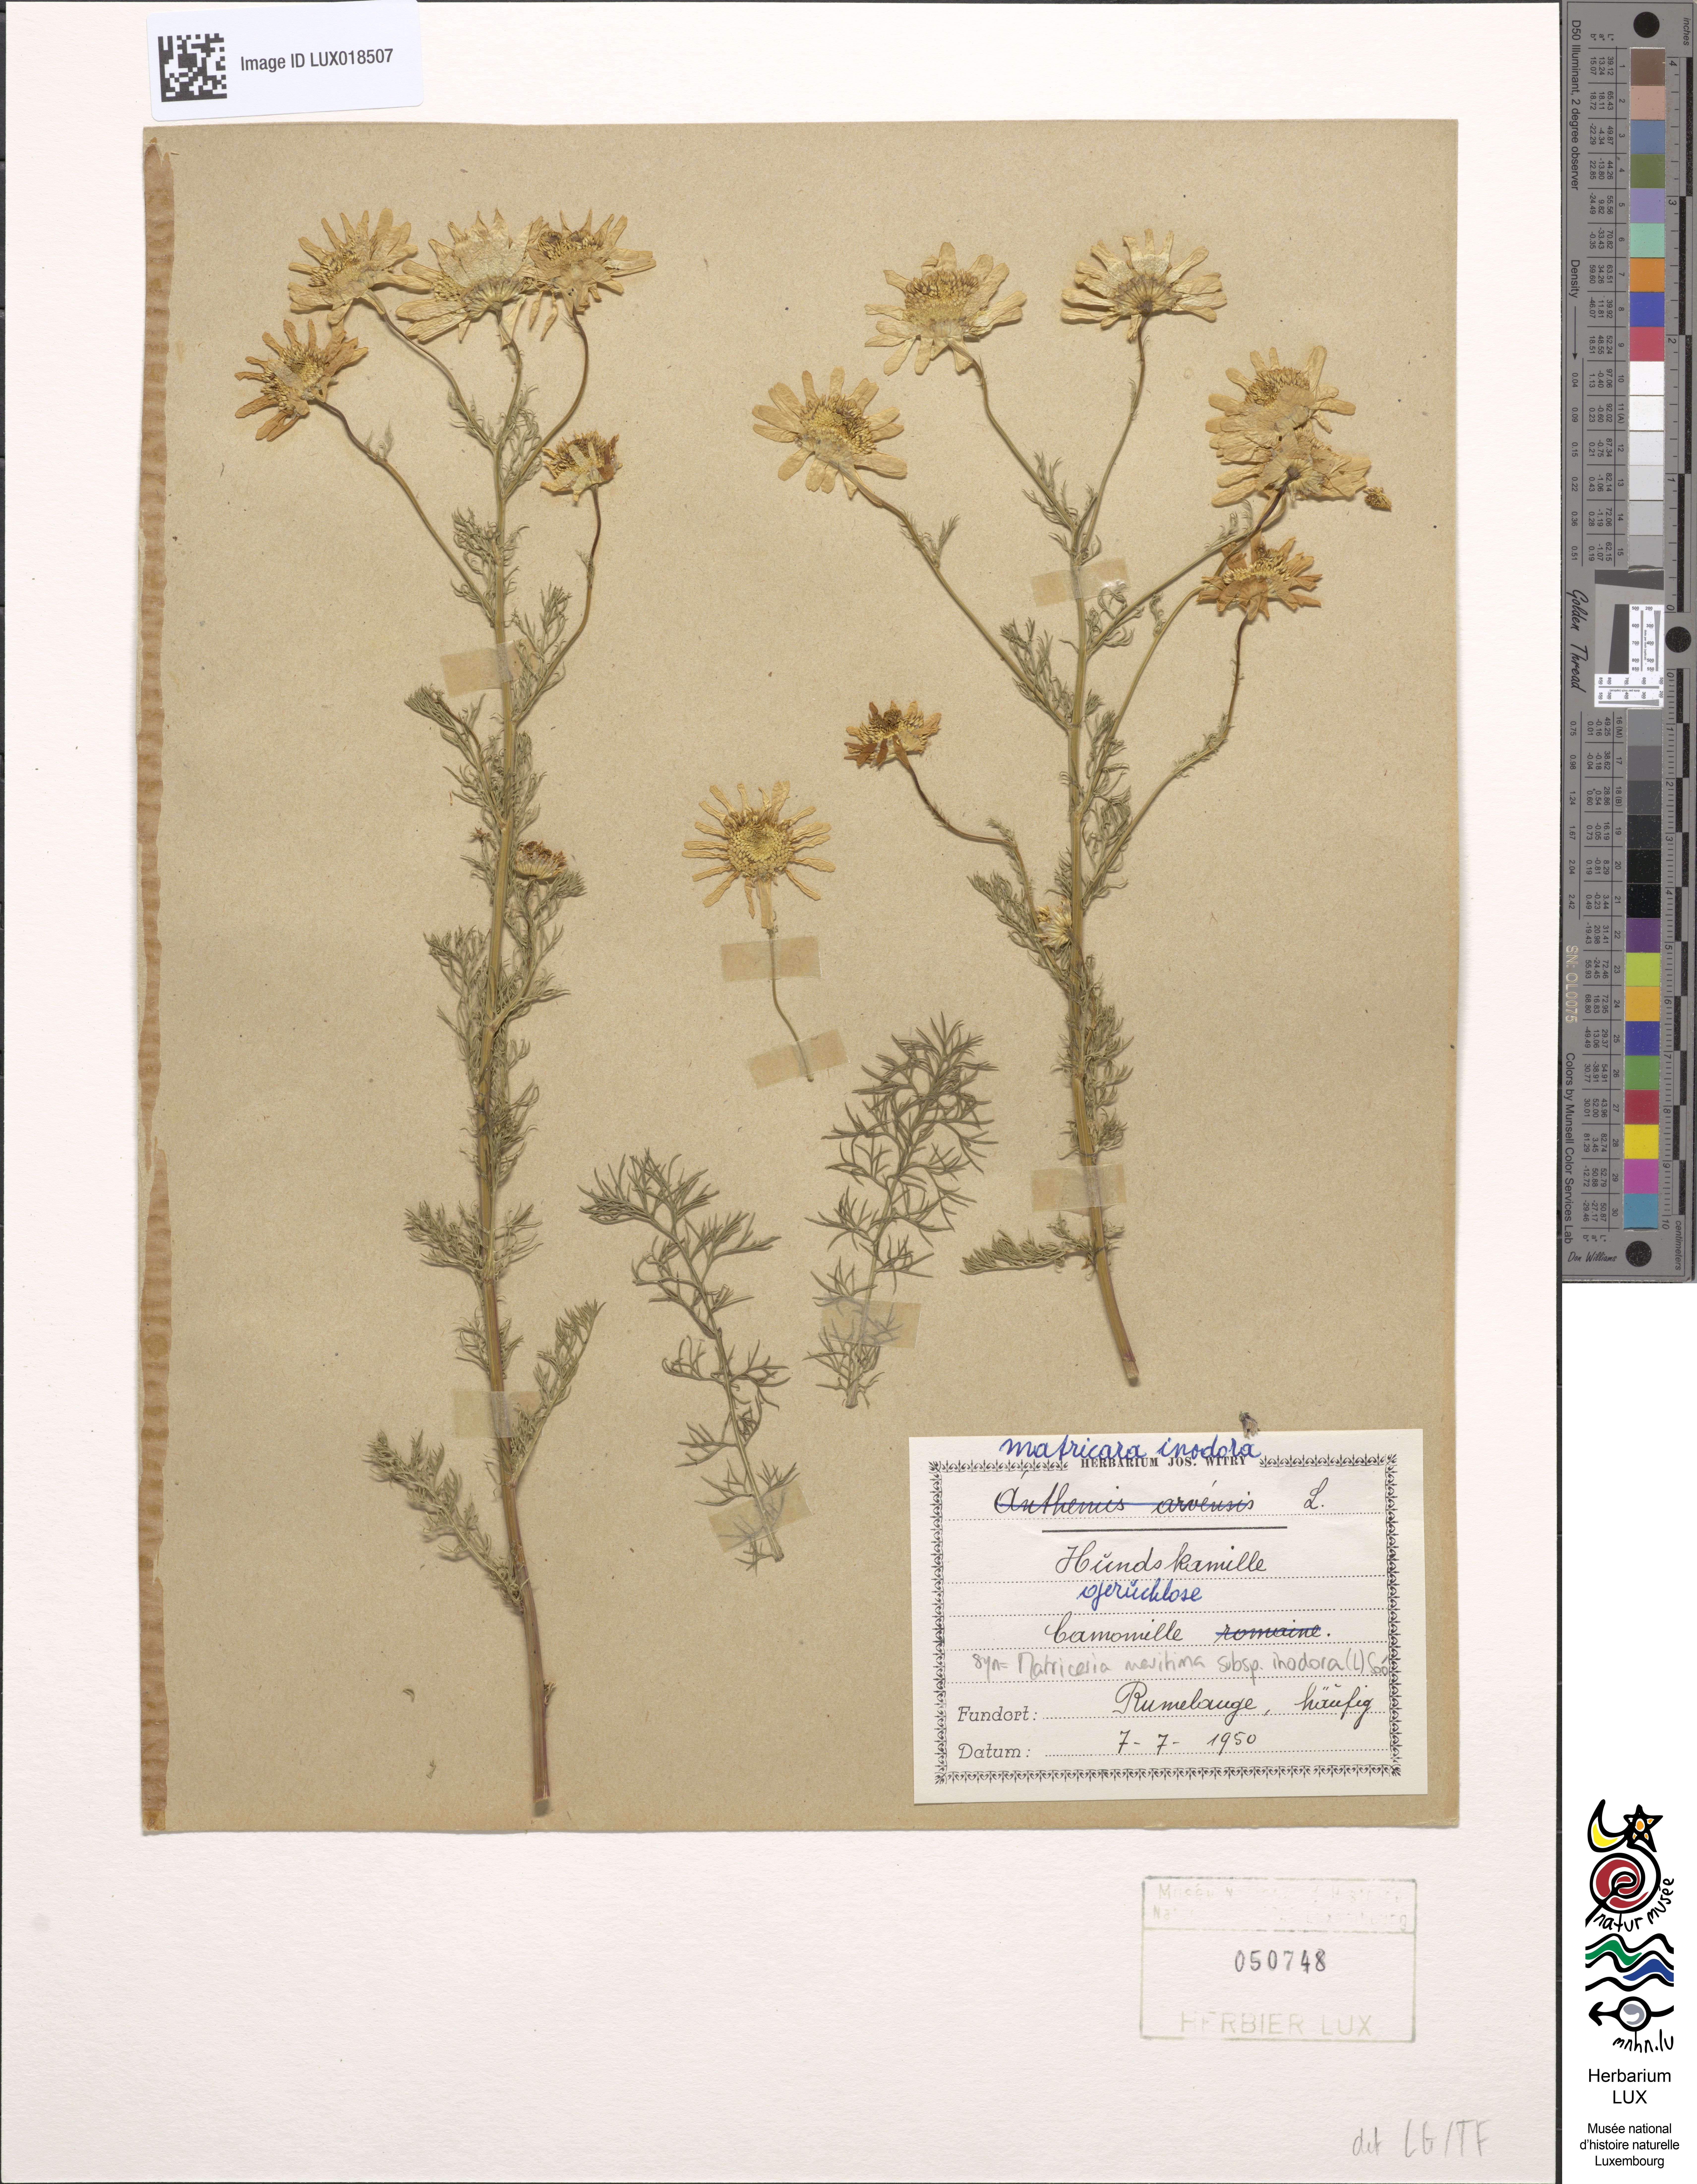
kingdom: Plantae
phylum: Tracheophyta
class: Magnoliopsida
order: Asterales
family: Asteraceae
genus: Tripleurospermum
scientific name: Tripleurospermum inodorum
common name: Scentless mayweed
